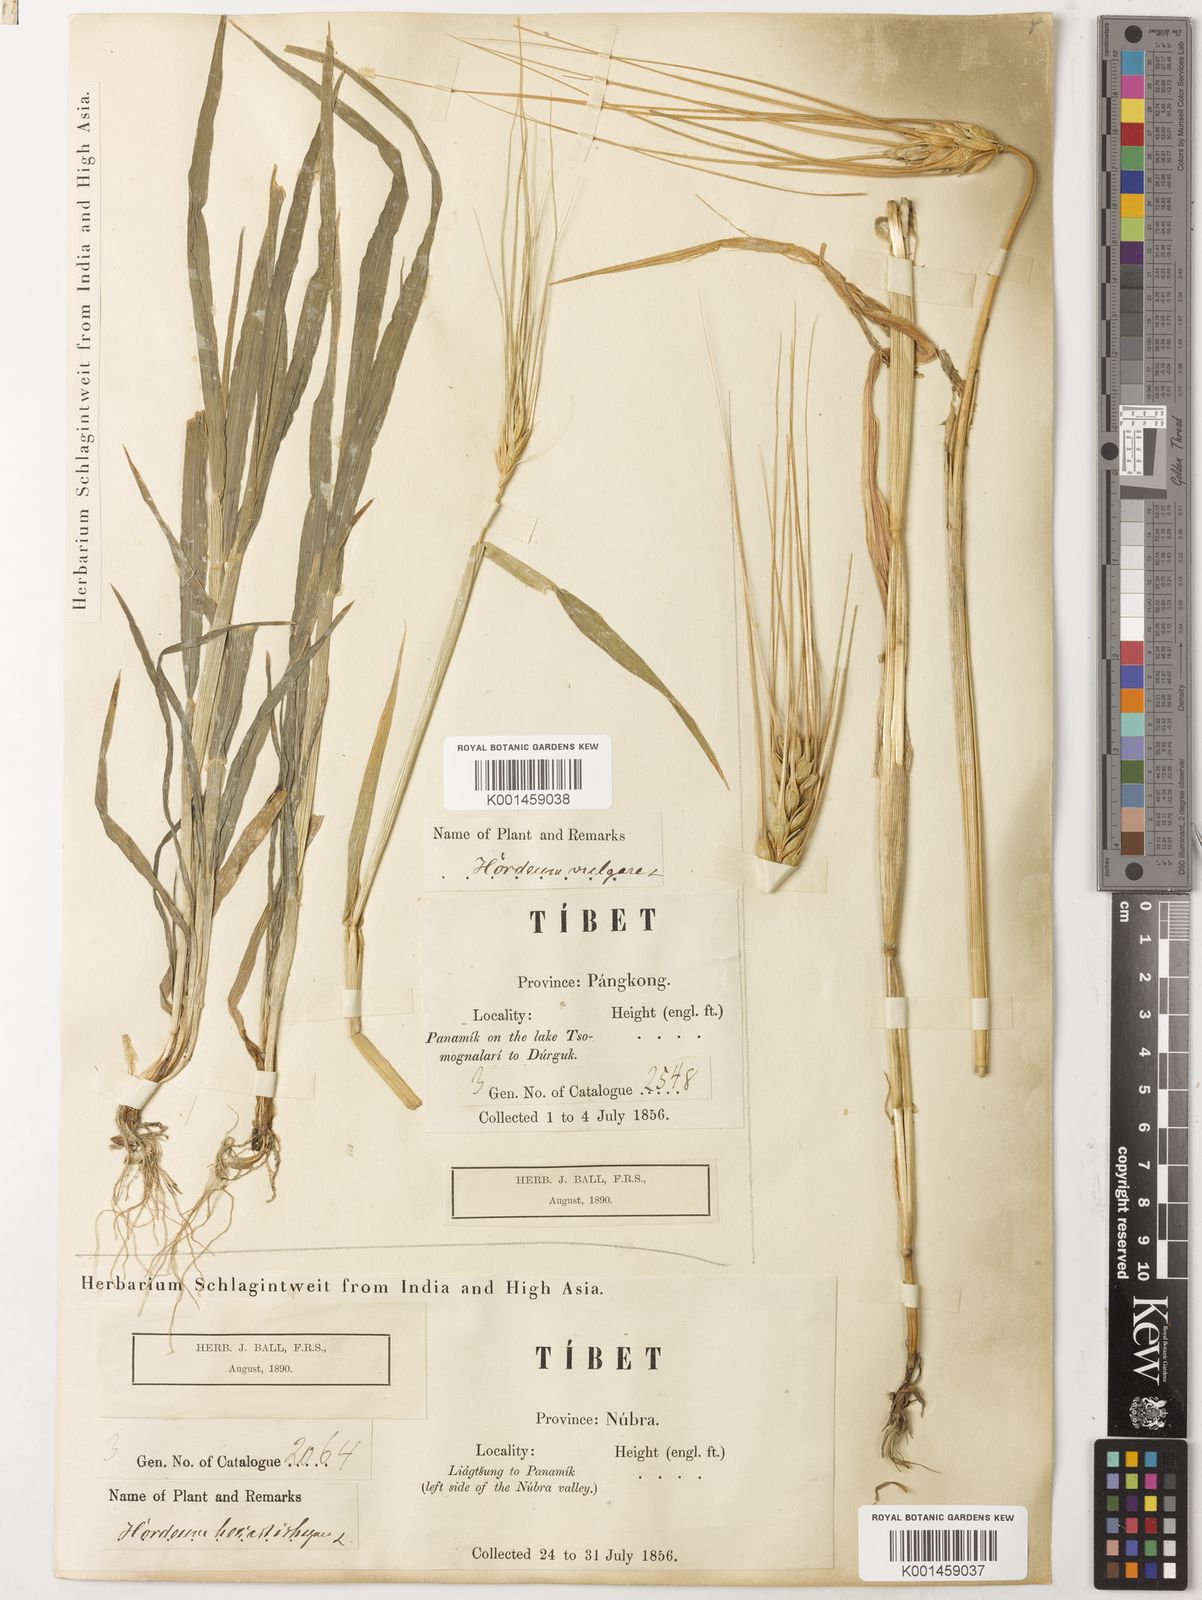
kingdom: Plantae
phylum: Tracheophyta
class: Liliopsida
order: Poales
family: Poaceae
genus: Hordeum
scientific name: Hordeum vulgare
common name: Common barley
